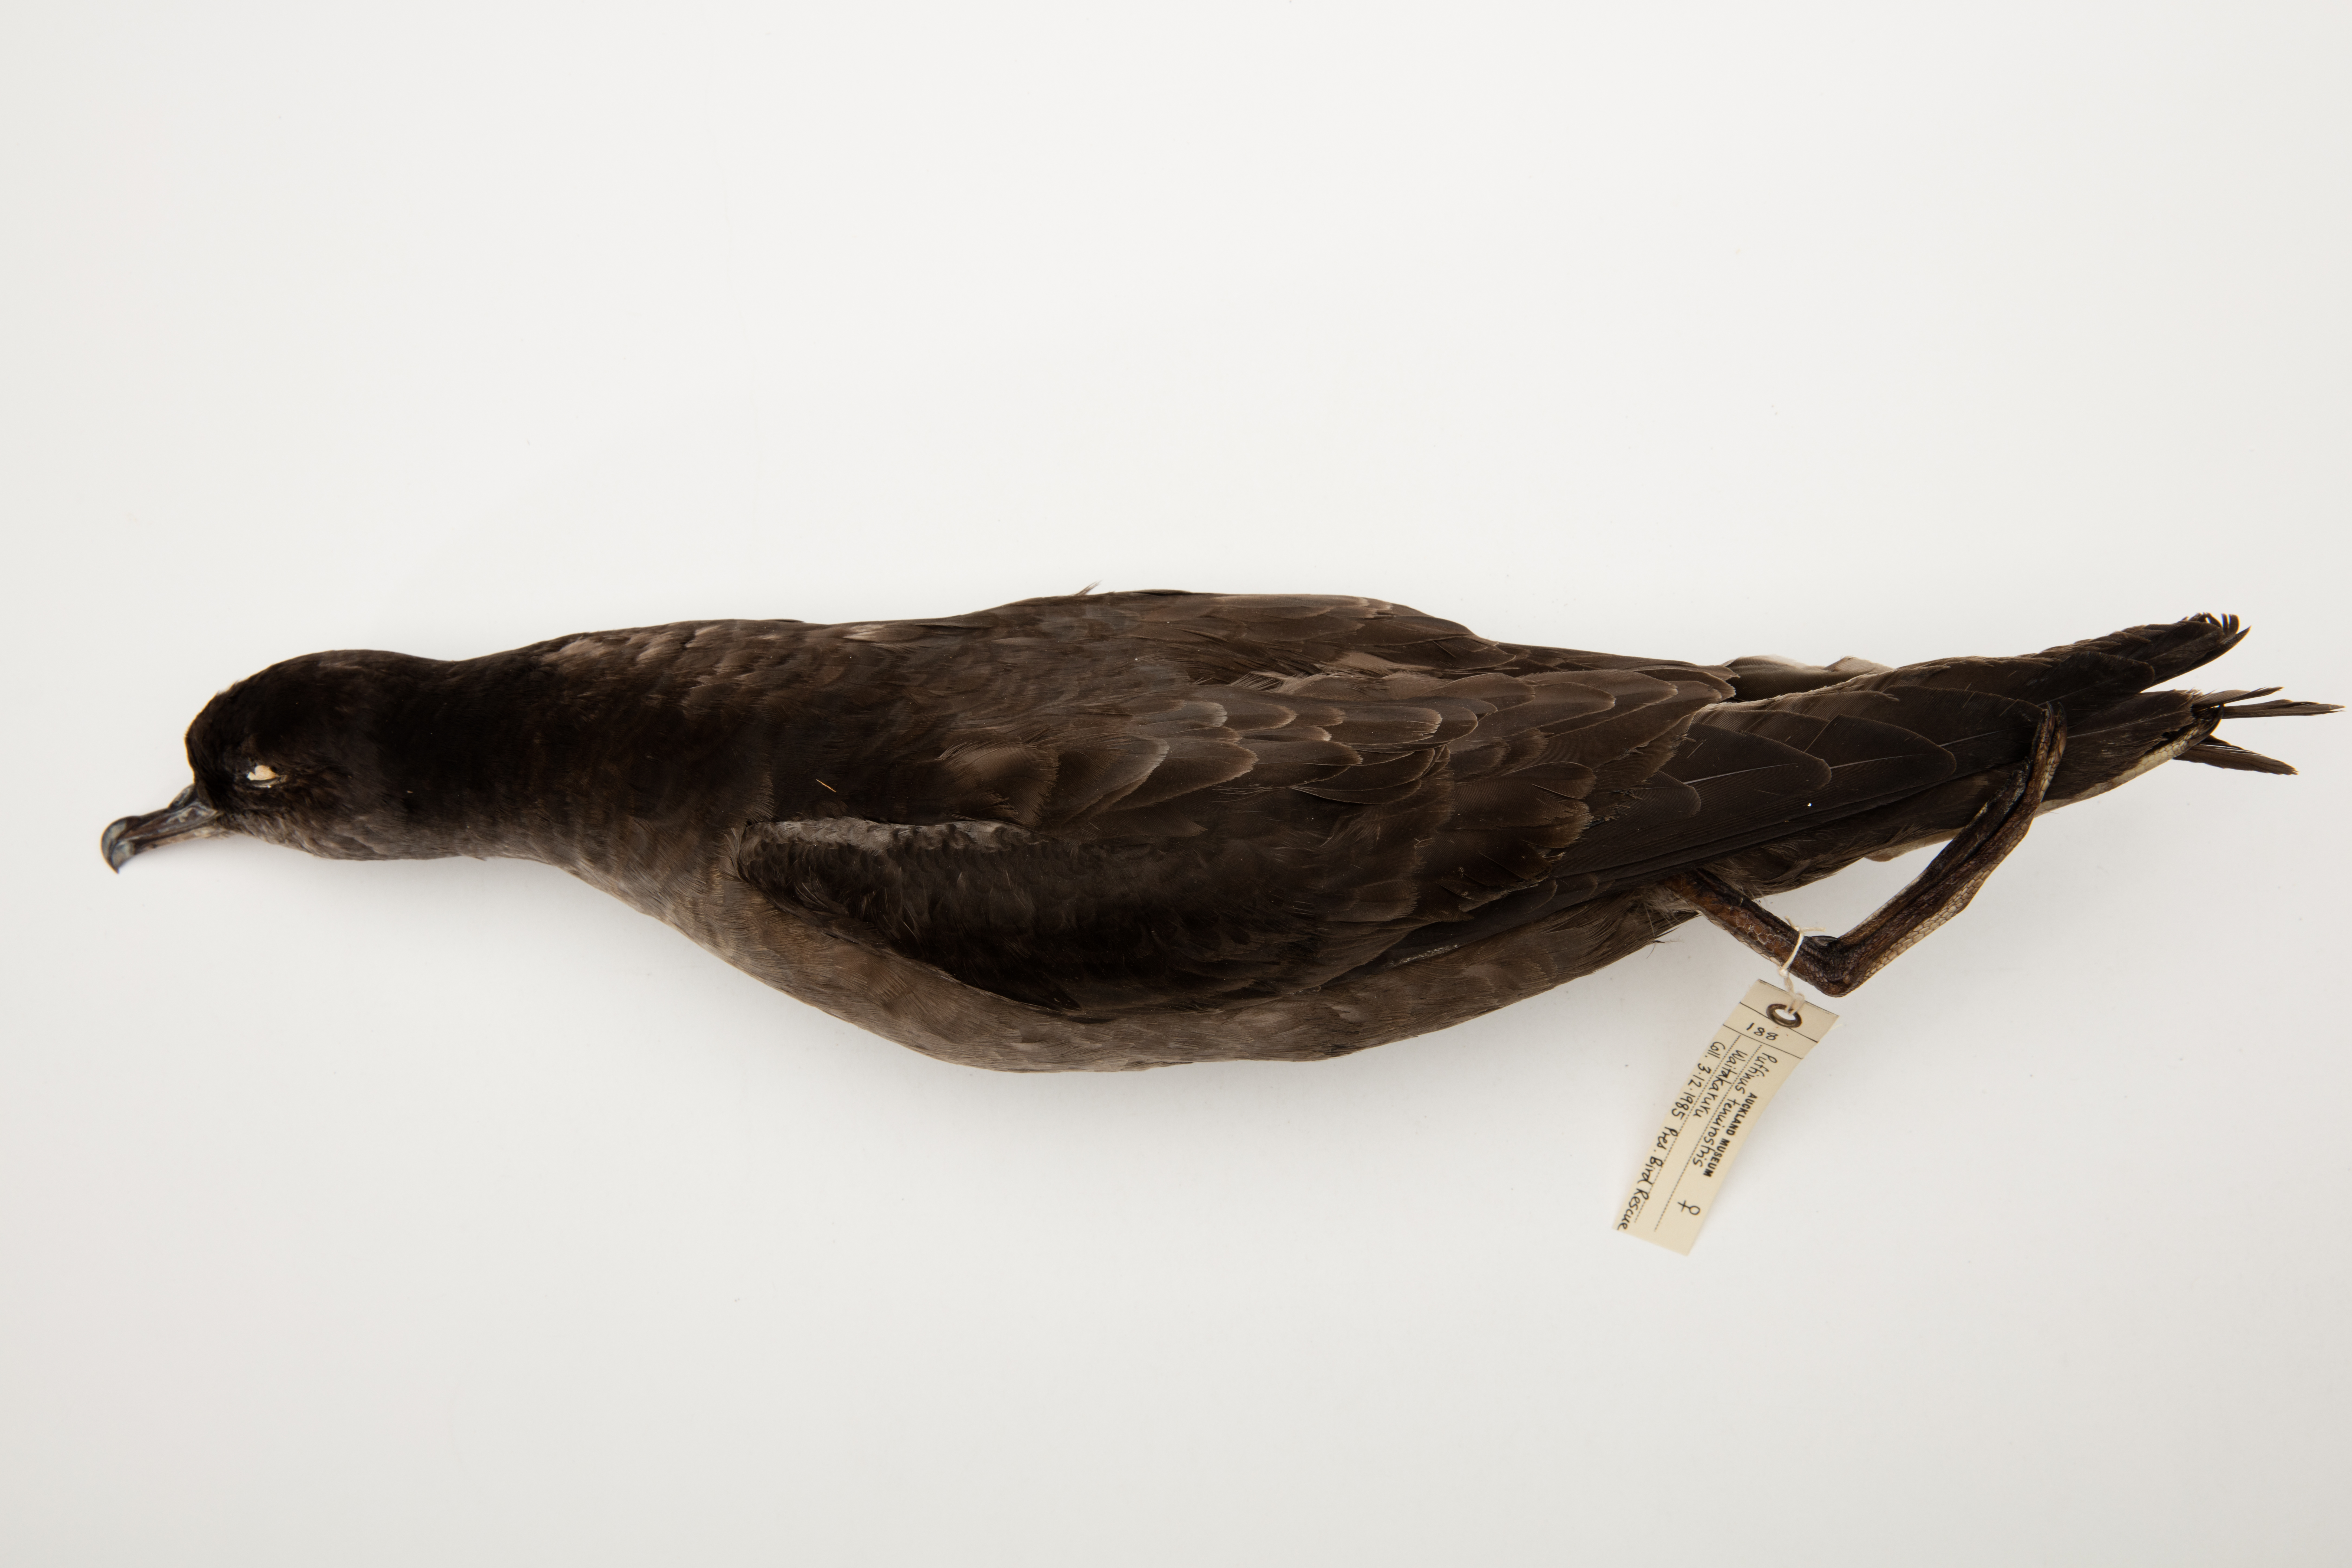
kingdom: Animalia
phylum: Chordata
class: Aves
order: Procellariiformes
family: Procellariidae
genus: Puffinus
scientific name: Puffinus tenuirostris
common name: Short-tailed shearwater
